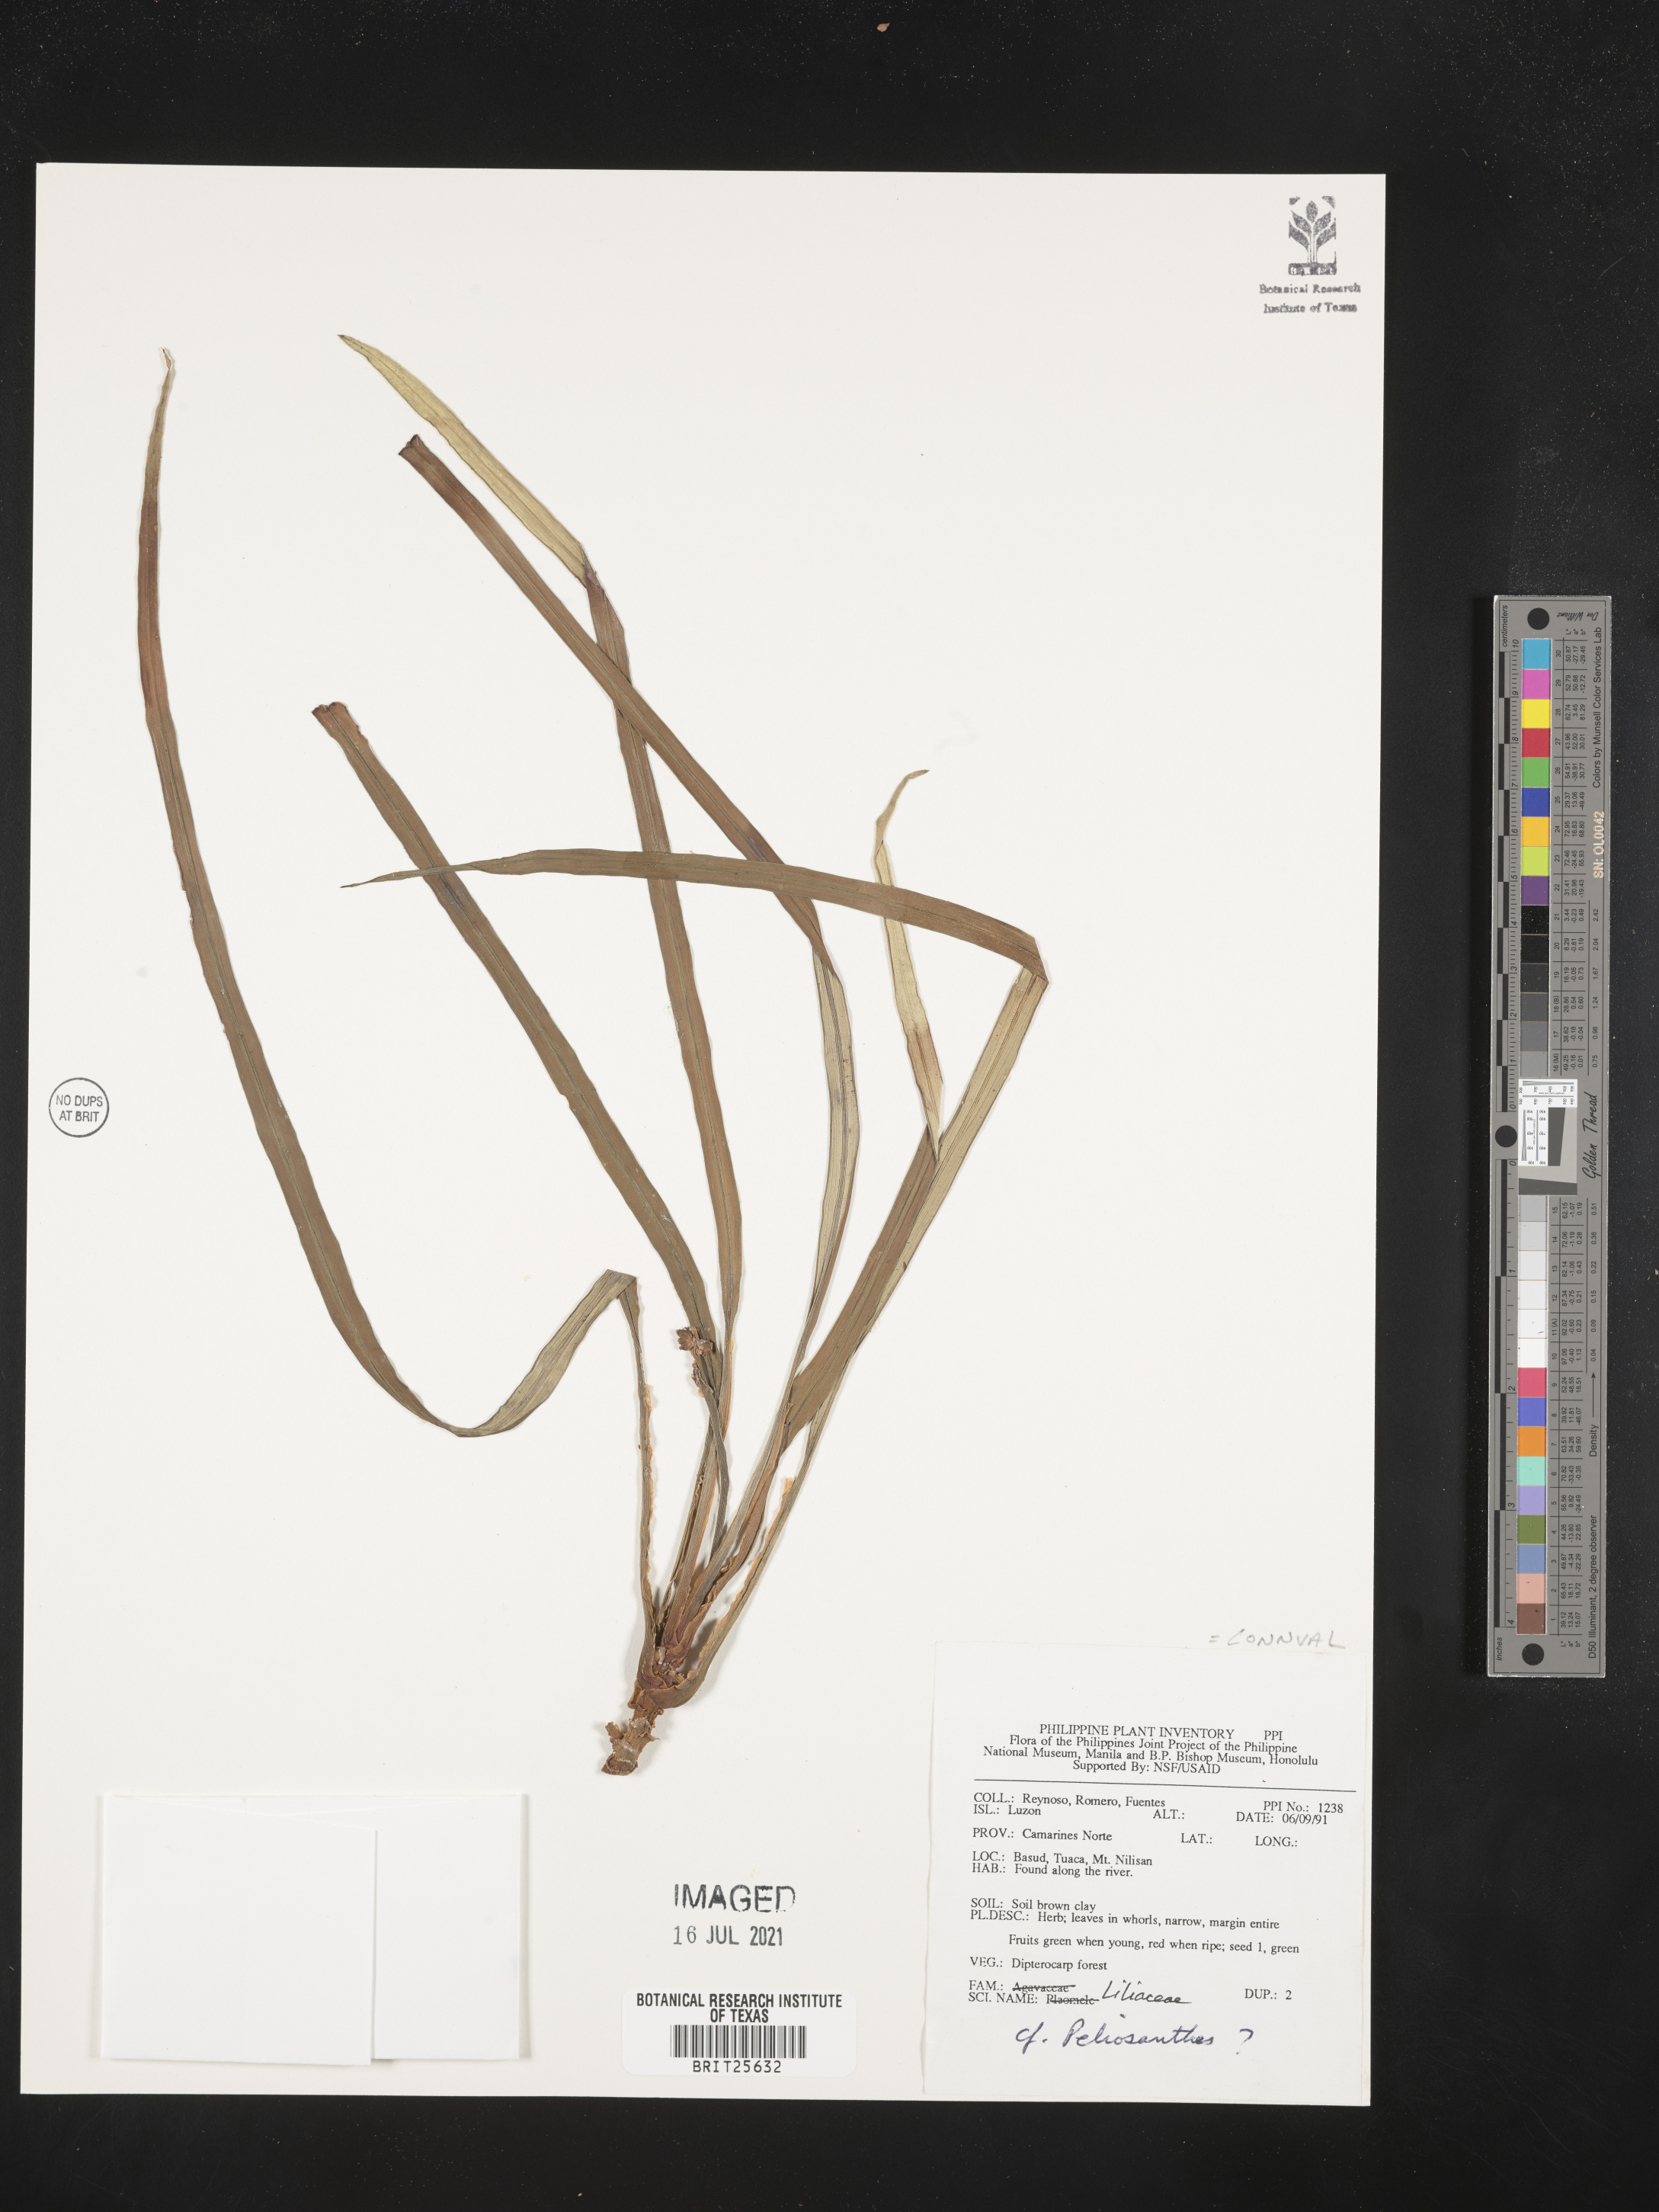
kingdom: Plantae
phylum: Tracheophyta
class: Liliopsida
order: Asparagales
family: Asparagaceae
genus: Peliosanthes
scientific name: Peliosanthes
